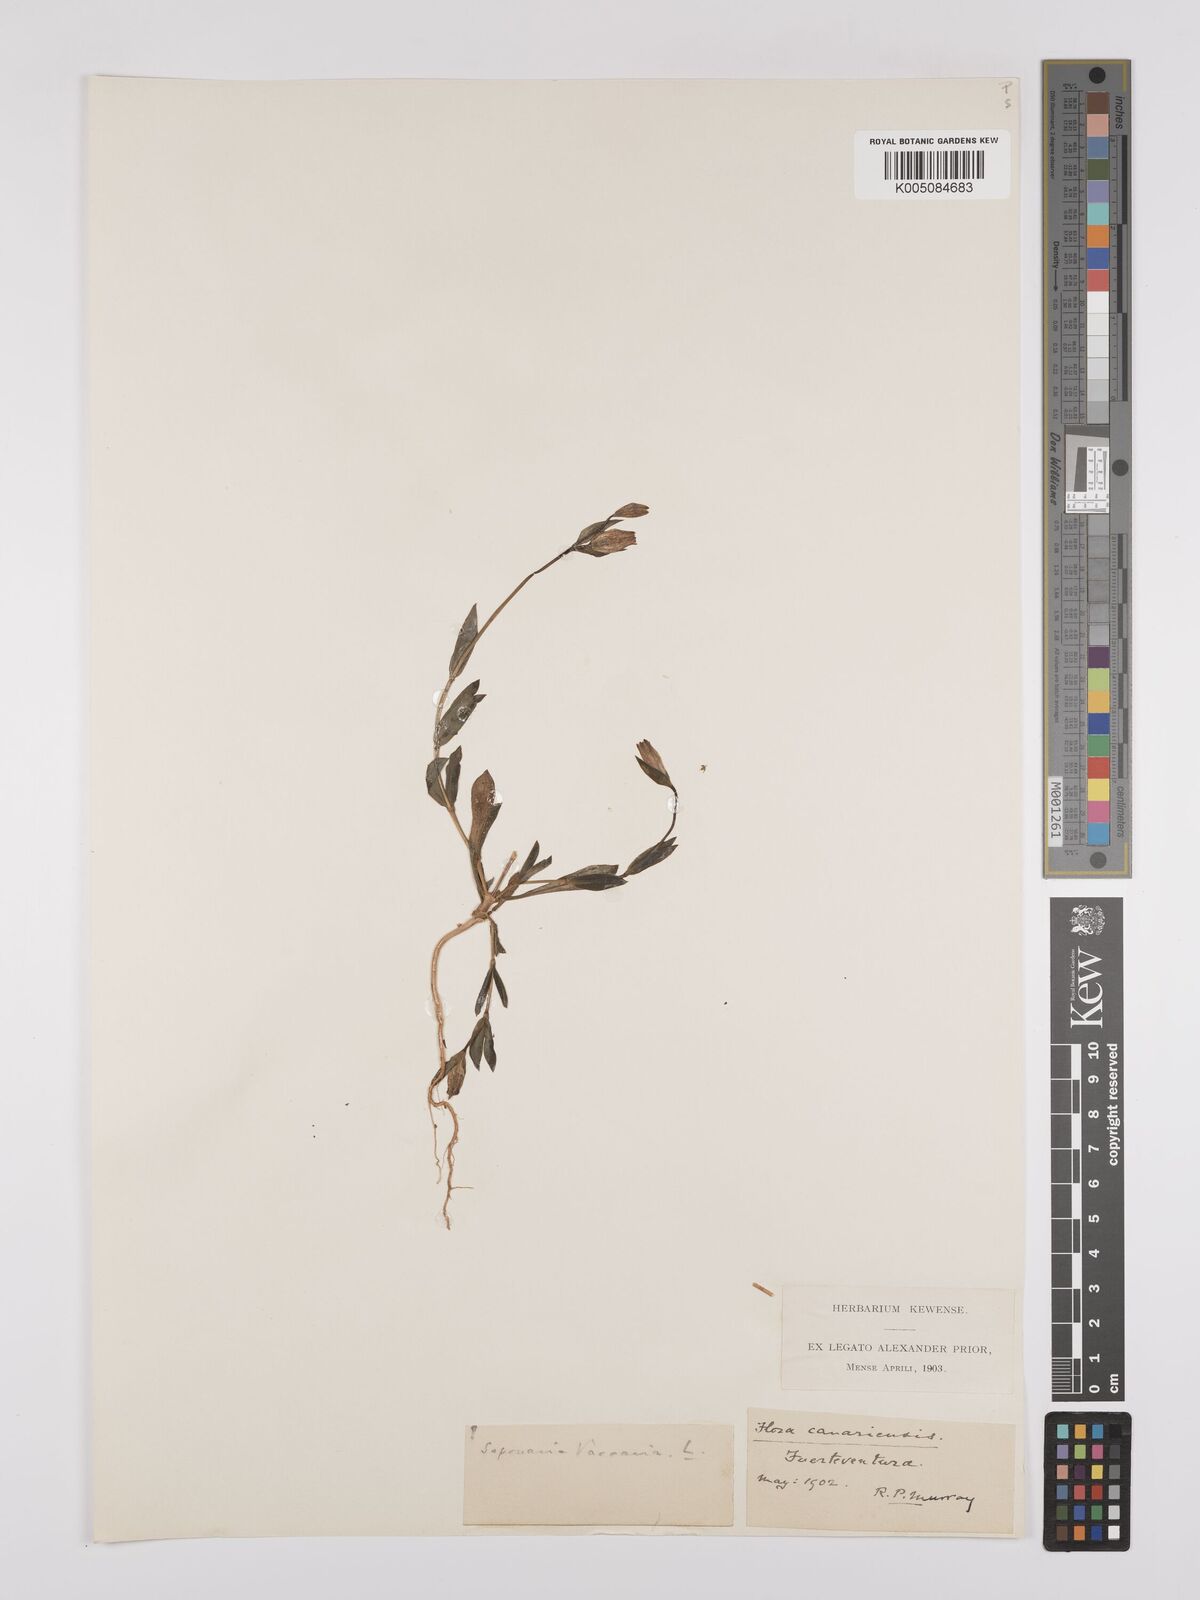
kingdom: Plantae
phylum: Tracheophyta
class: Magnoliopsida
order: Caryophyllales
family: Caryophyllaceae
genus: Gypsophila
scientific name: Gypsophila vaccaria
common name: Cow soapwort
